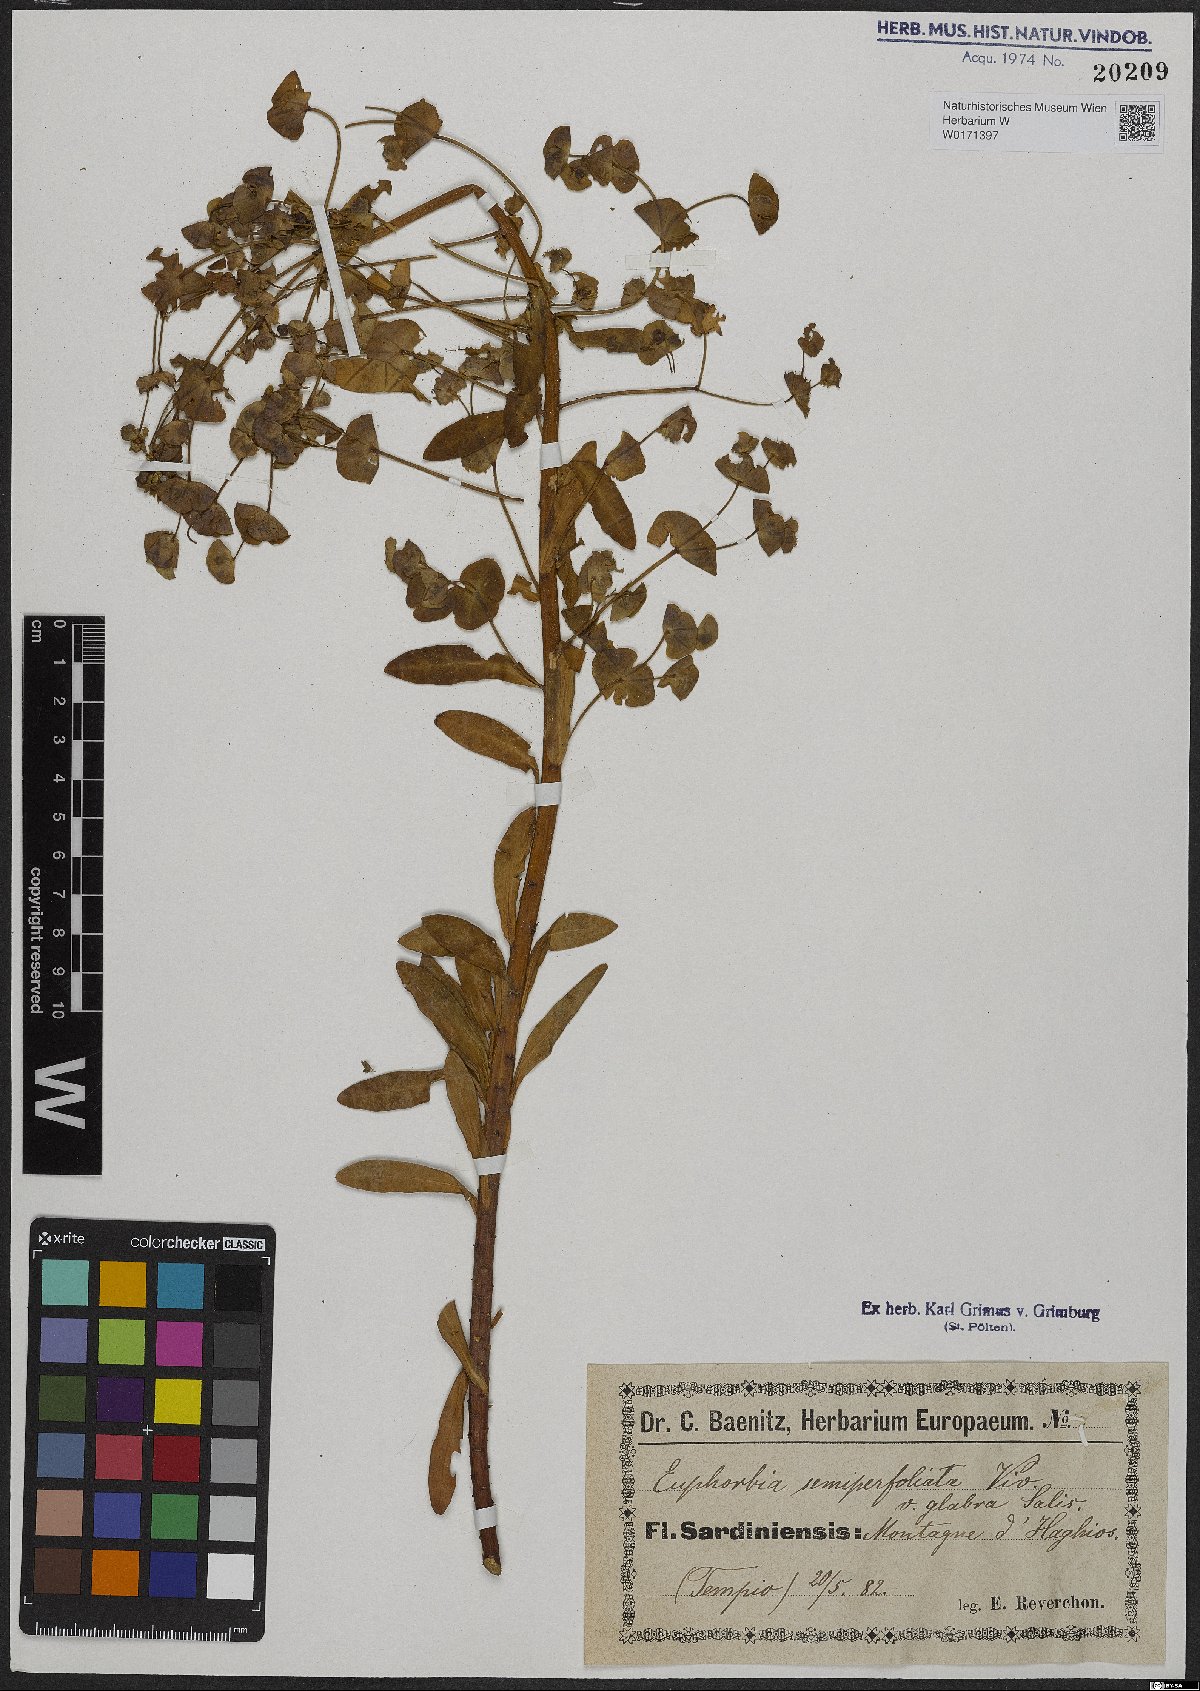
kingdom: Plantae
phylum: Tracheophyta
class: Magnoliopsida
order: Malpighiales
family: Euphorbiaceae
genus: Euphorbia
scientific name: Euphorbia semiperfoliata
